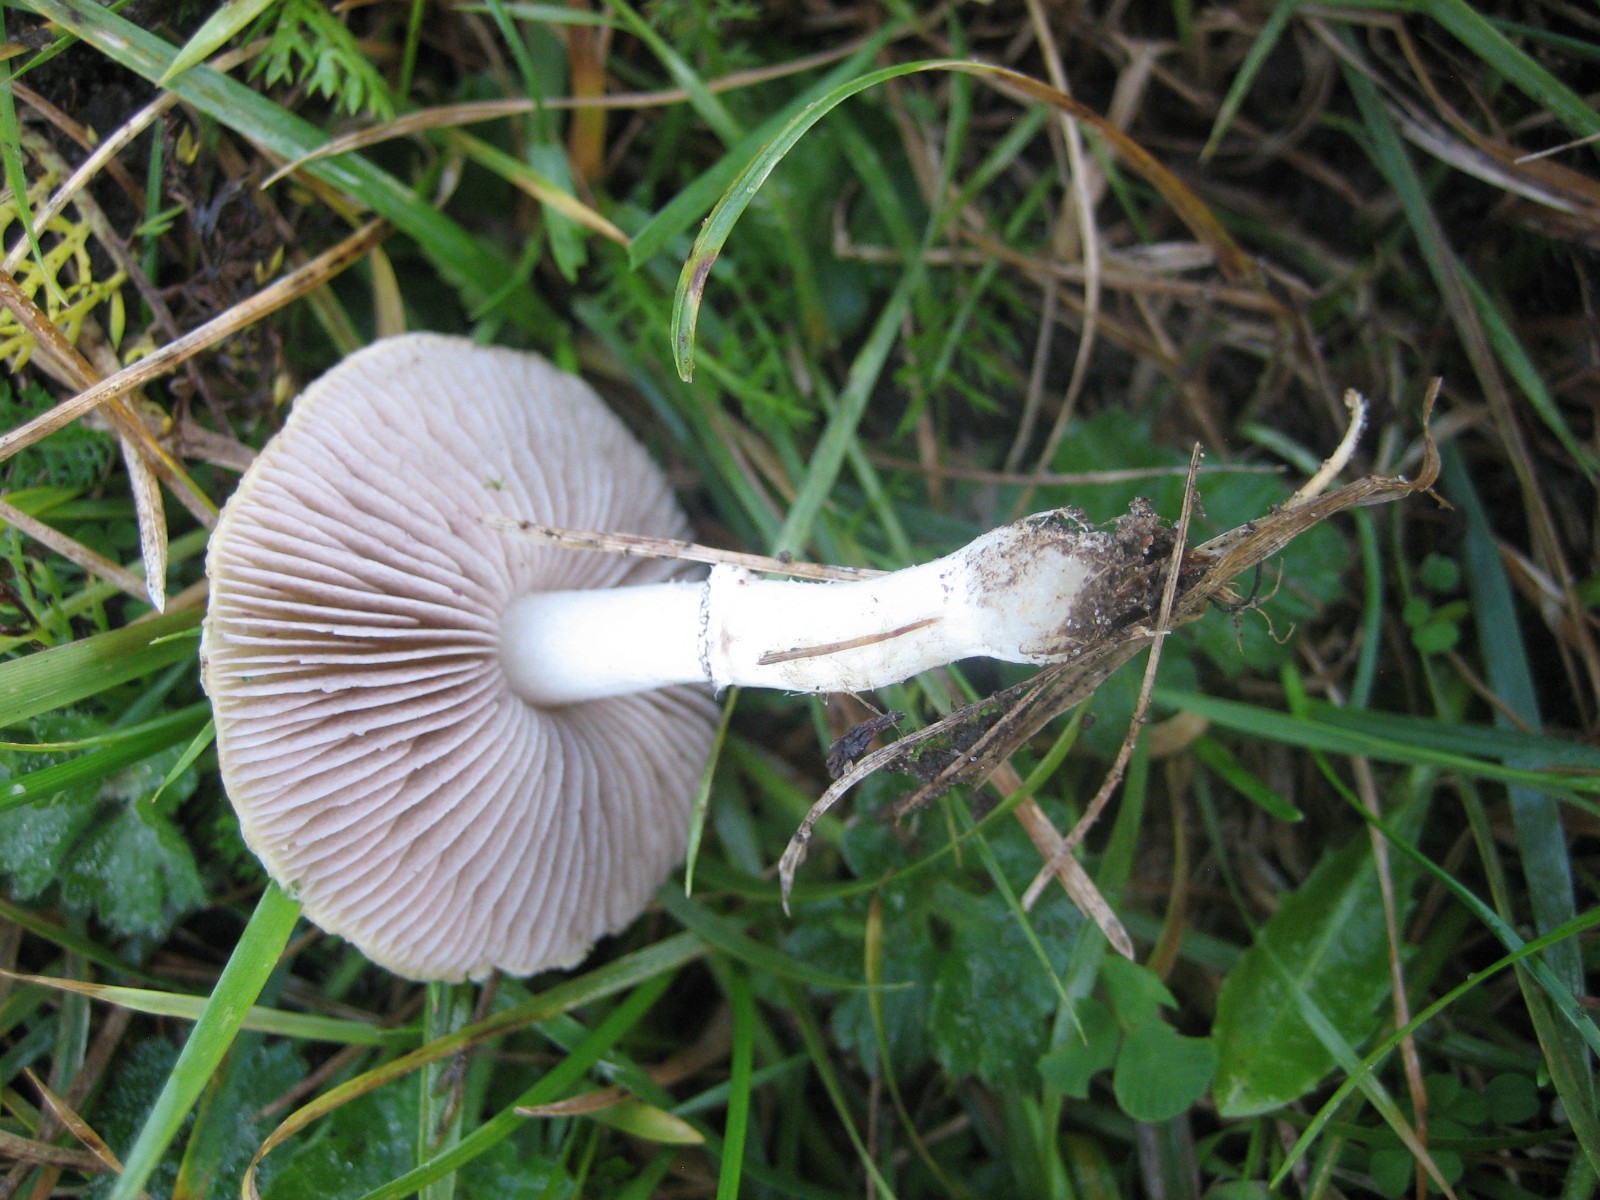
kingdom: Fungi
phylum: Basidiomycota
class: Agaricomycetes
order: Agaricales
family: Hymenogastraceae
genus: Psilocybe
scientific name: Psilocybe coronilla
